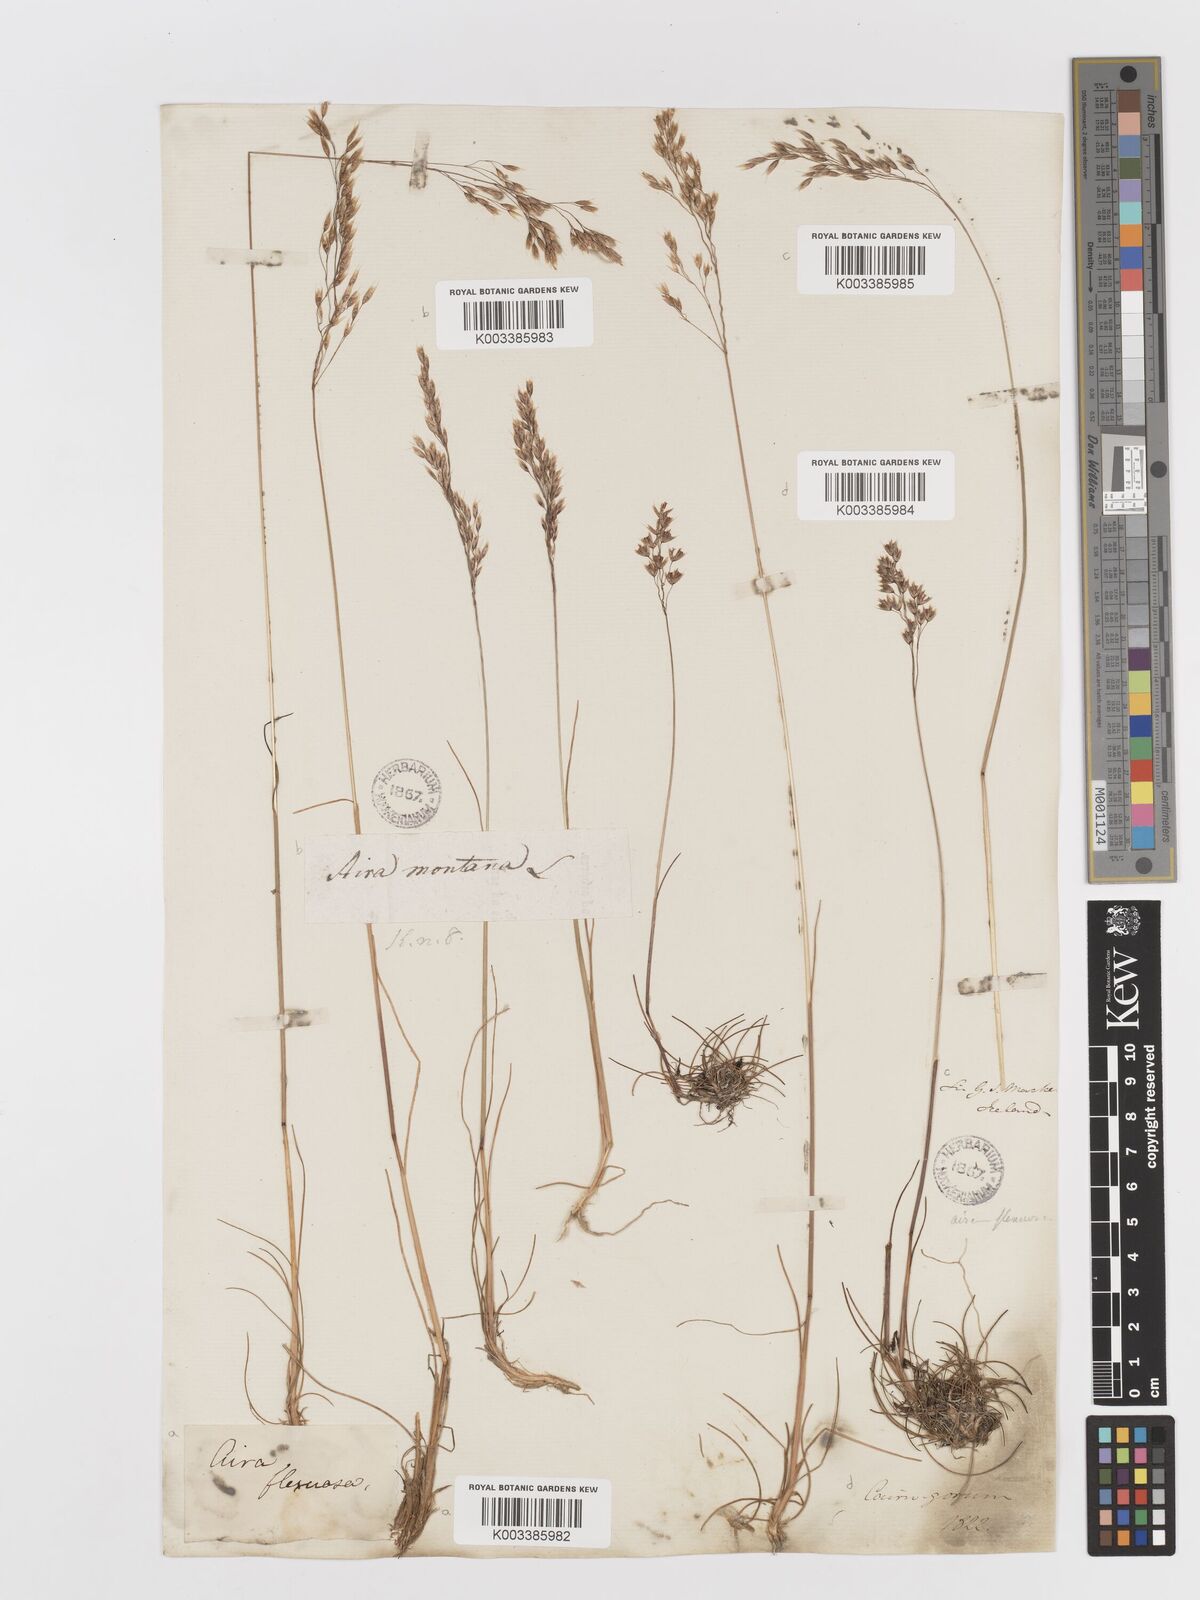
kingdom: Plantae
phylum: Tracheophyta
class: Liliopsida
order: Poales
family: Poaceae
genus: Avenella
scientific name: Avenella flexuosa
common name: Wavy hairgrass
